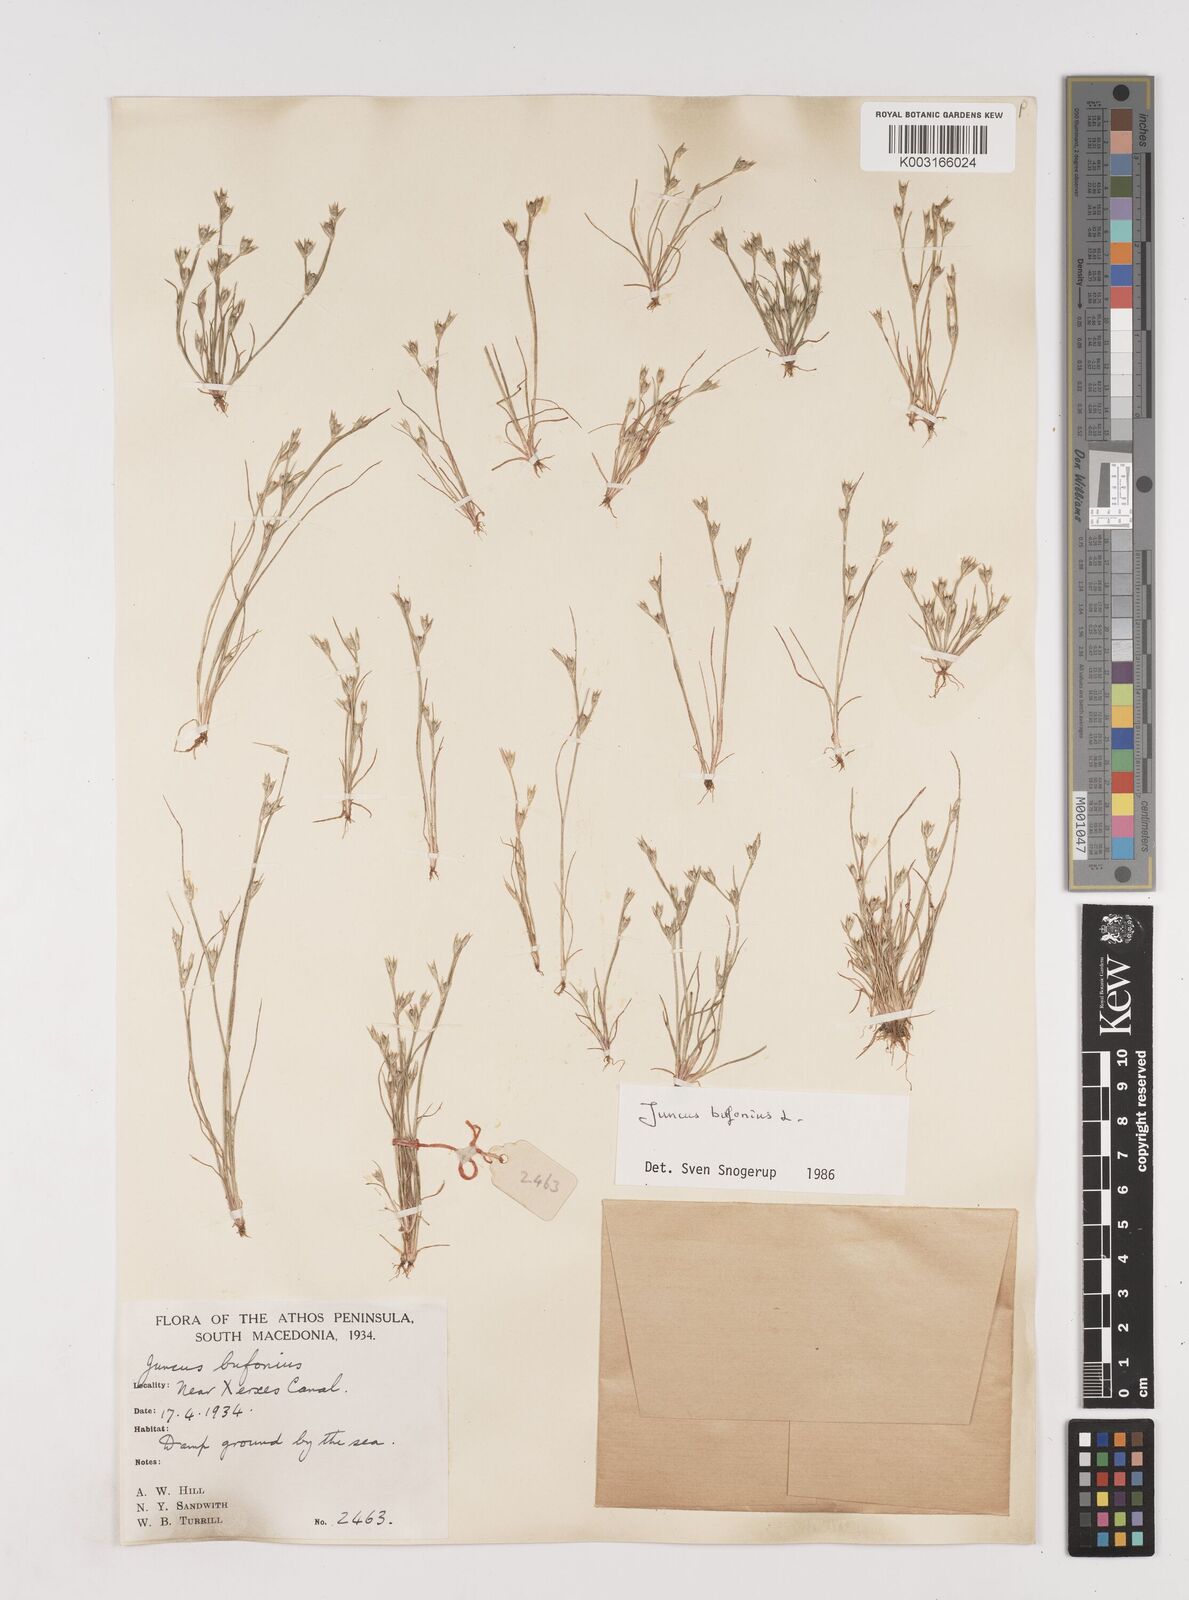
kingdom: Plantae
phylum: Tracheophyta
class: Liliopsida
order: Poales
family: Juncaceae
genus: Juncus
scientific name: Juncus bufonius
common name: Toad rush
